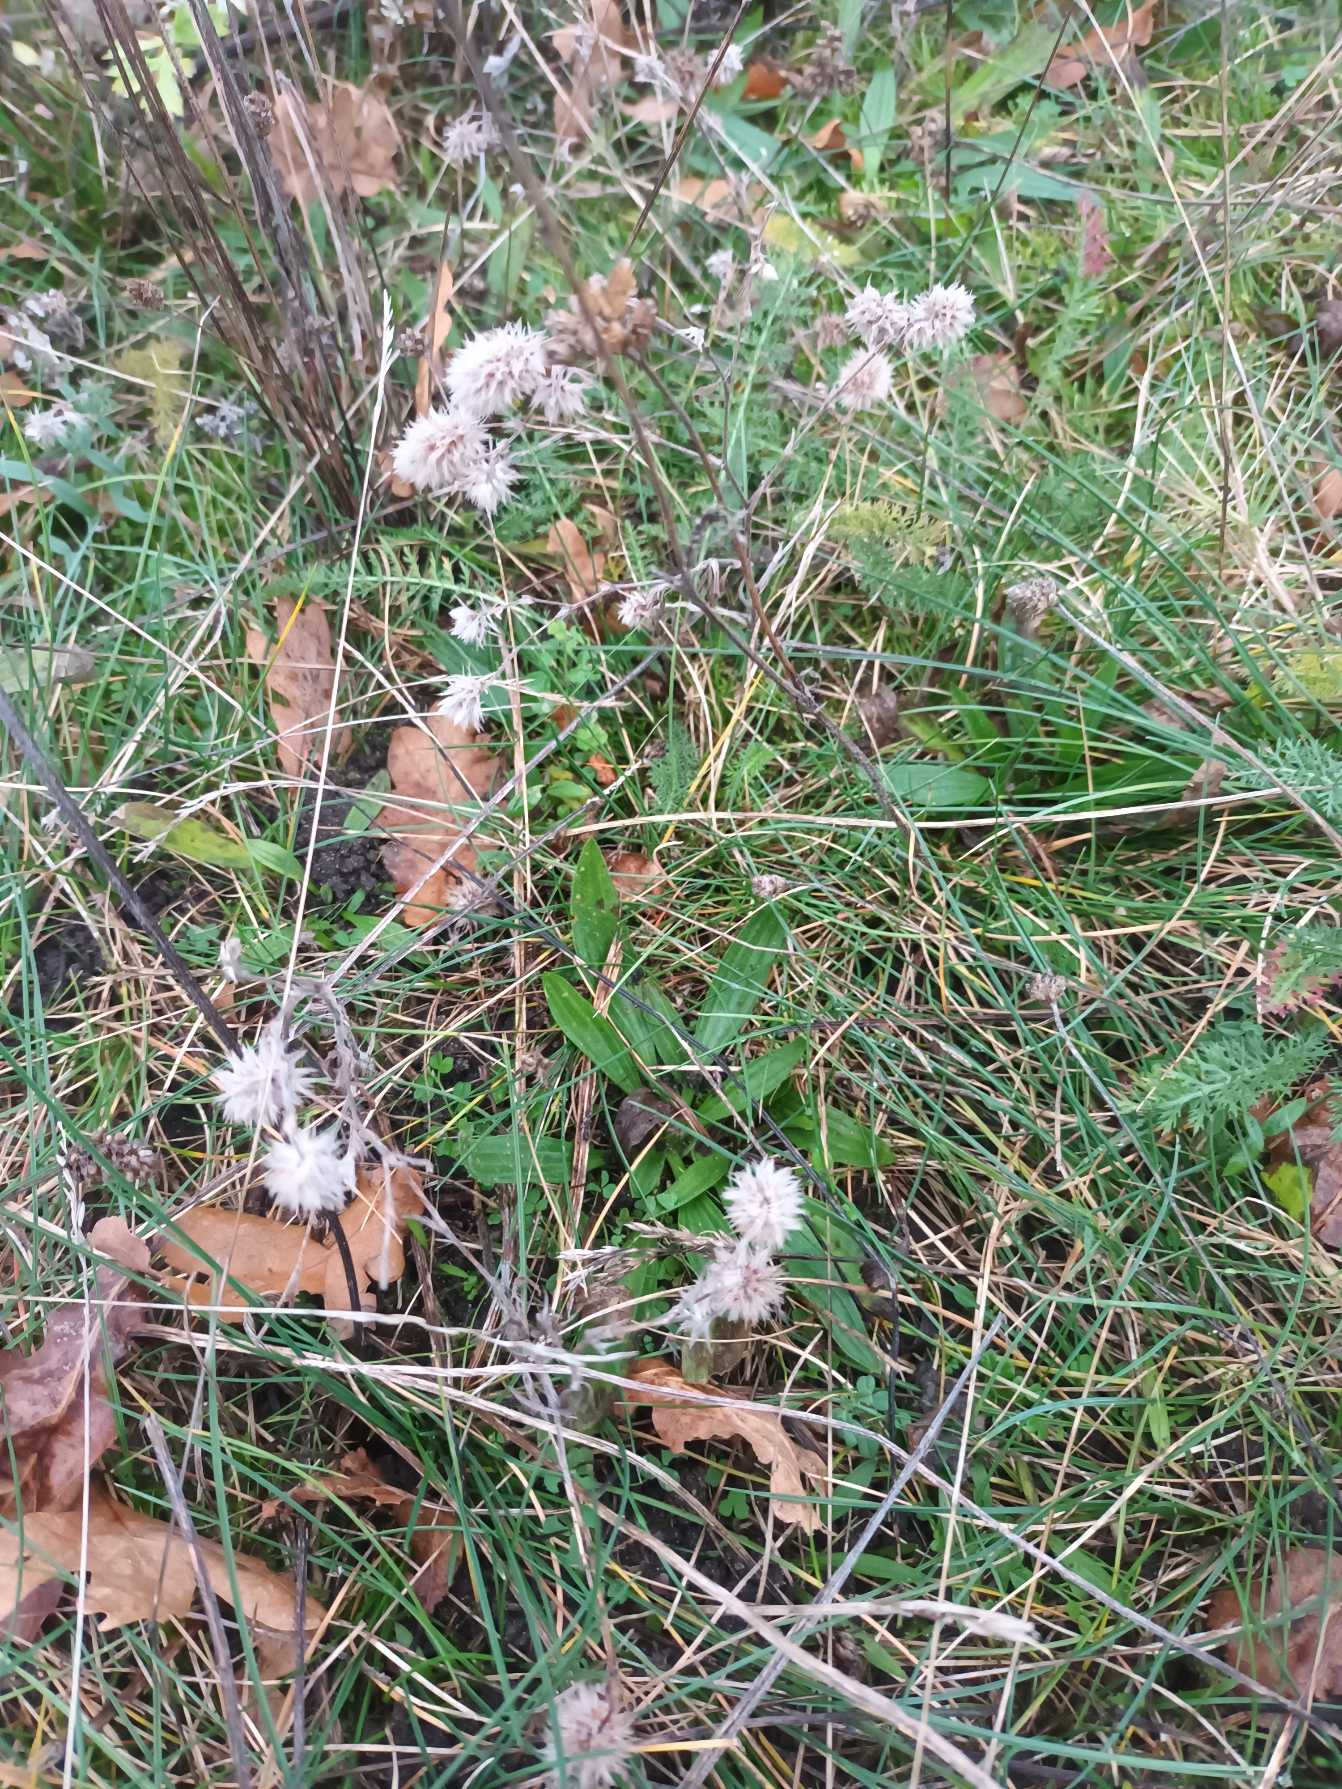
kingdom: Plantae
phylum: Tracheophyta
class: Magnoliopsida
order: Fabales
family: Fabaceae
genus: Trifolium
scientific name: Trifolium arvense
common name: Hare-kløver
